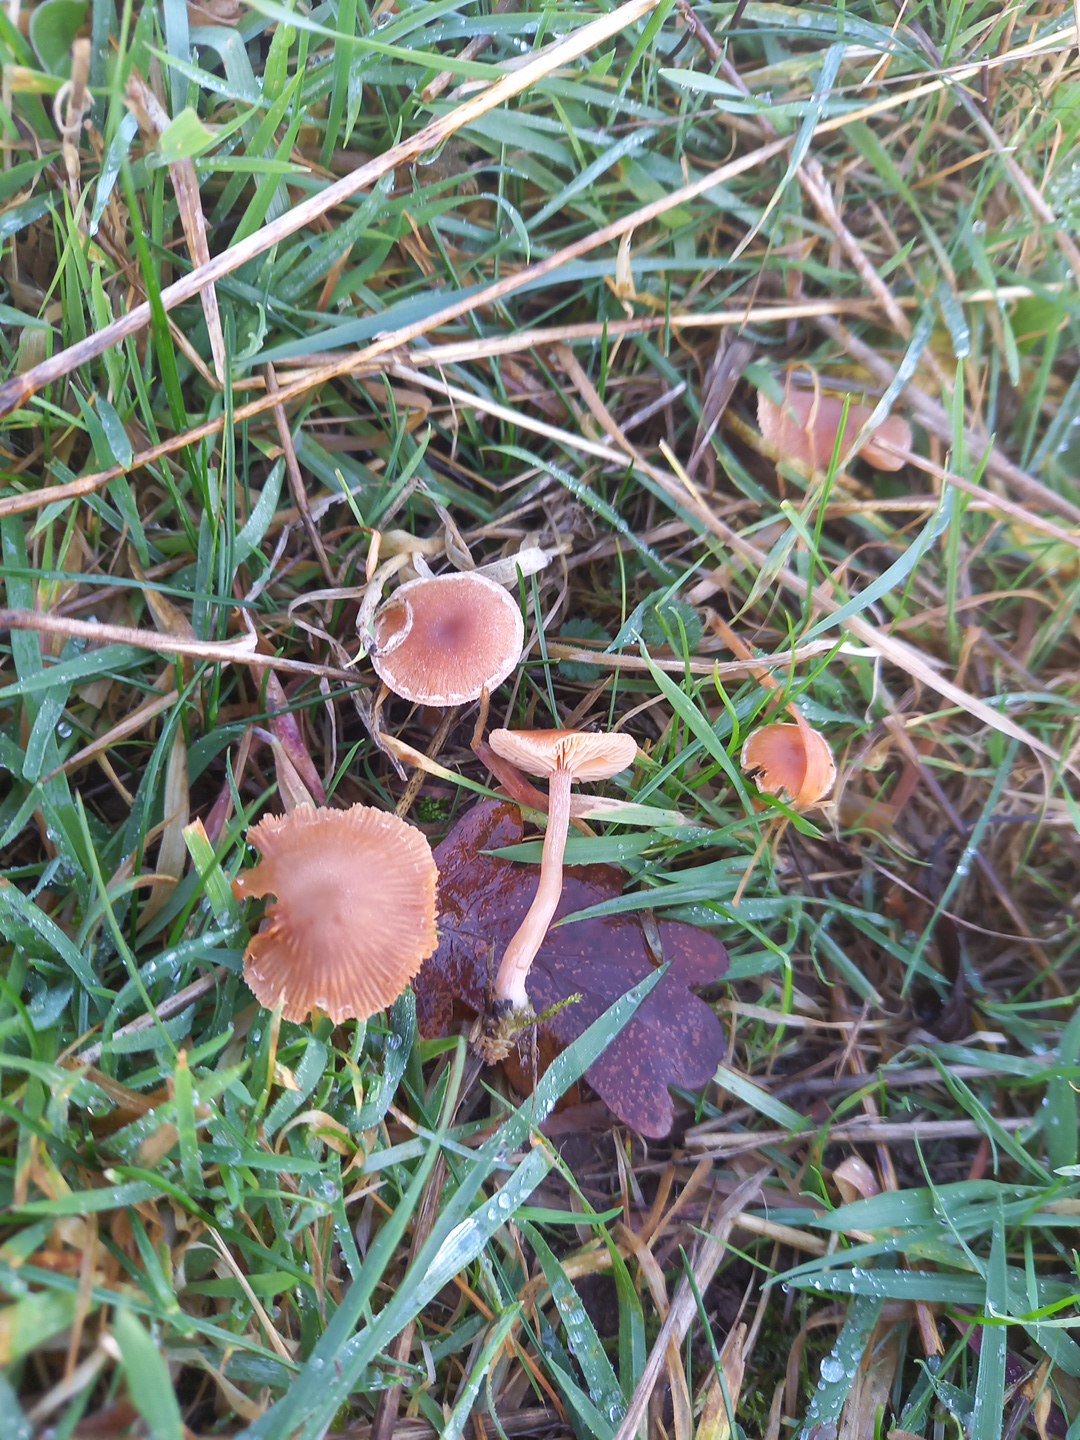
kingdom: Fungi
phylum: Basidiomycota
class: Agaricomycetes
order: Agaricales
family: Tubariaceae
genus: Tubaria
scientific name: Tubaria furfuracea
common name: kliddet fnughat
